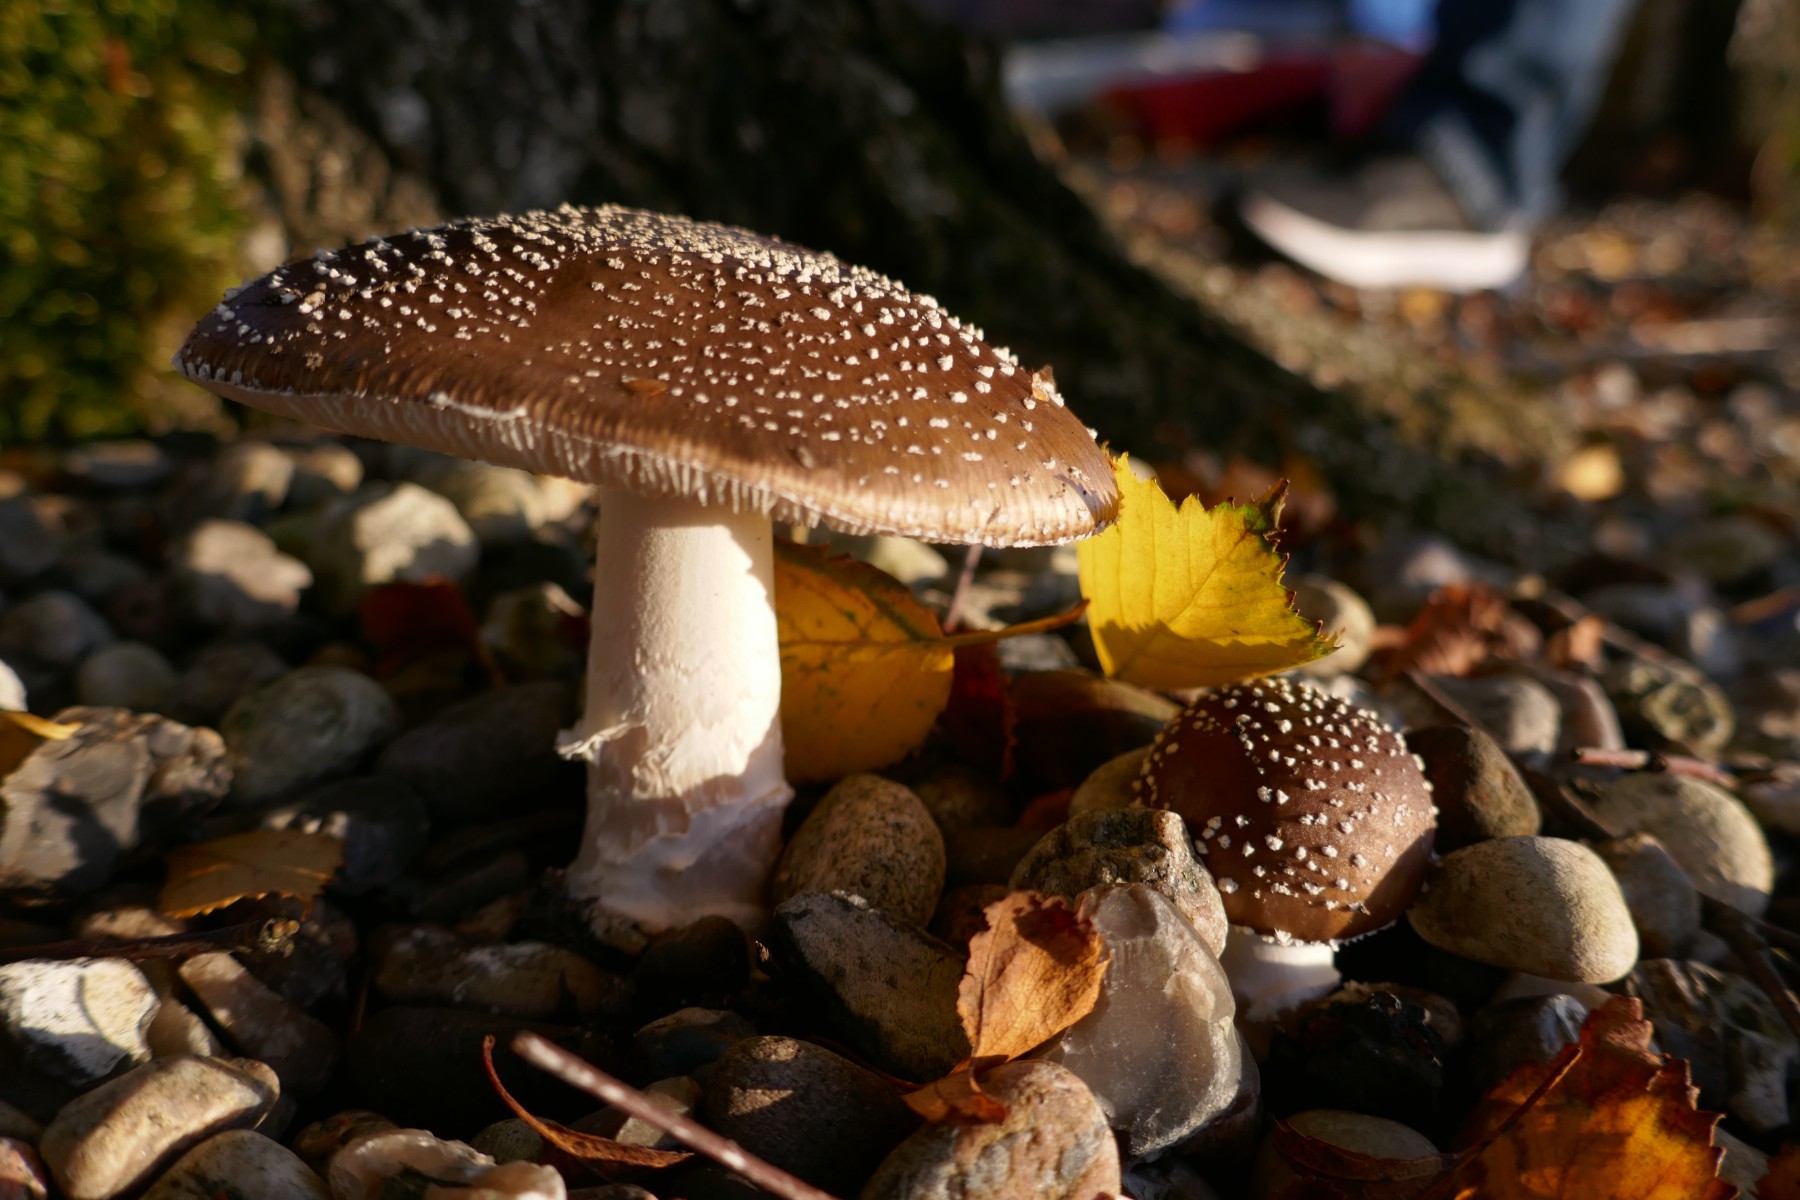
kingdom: Fungi
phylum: Basidiomycota
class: Agaricomycetes
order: Agaricales
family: Amanitaceae
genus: Amanita
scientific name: Amanita pantherina
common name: panter-fluesvamp
